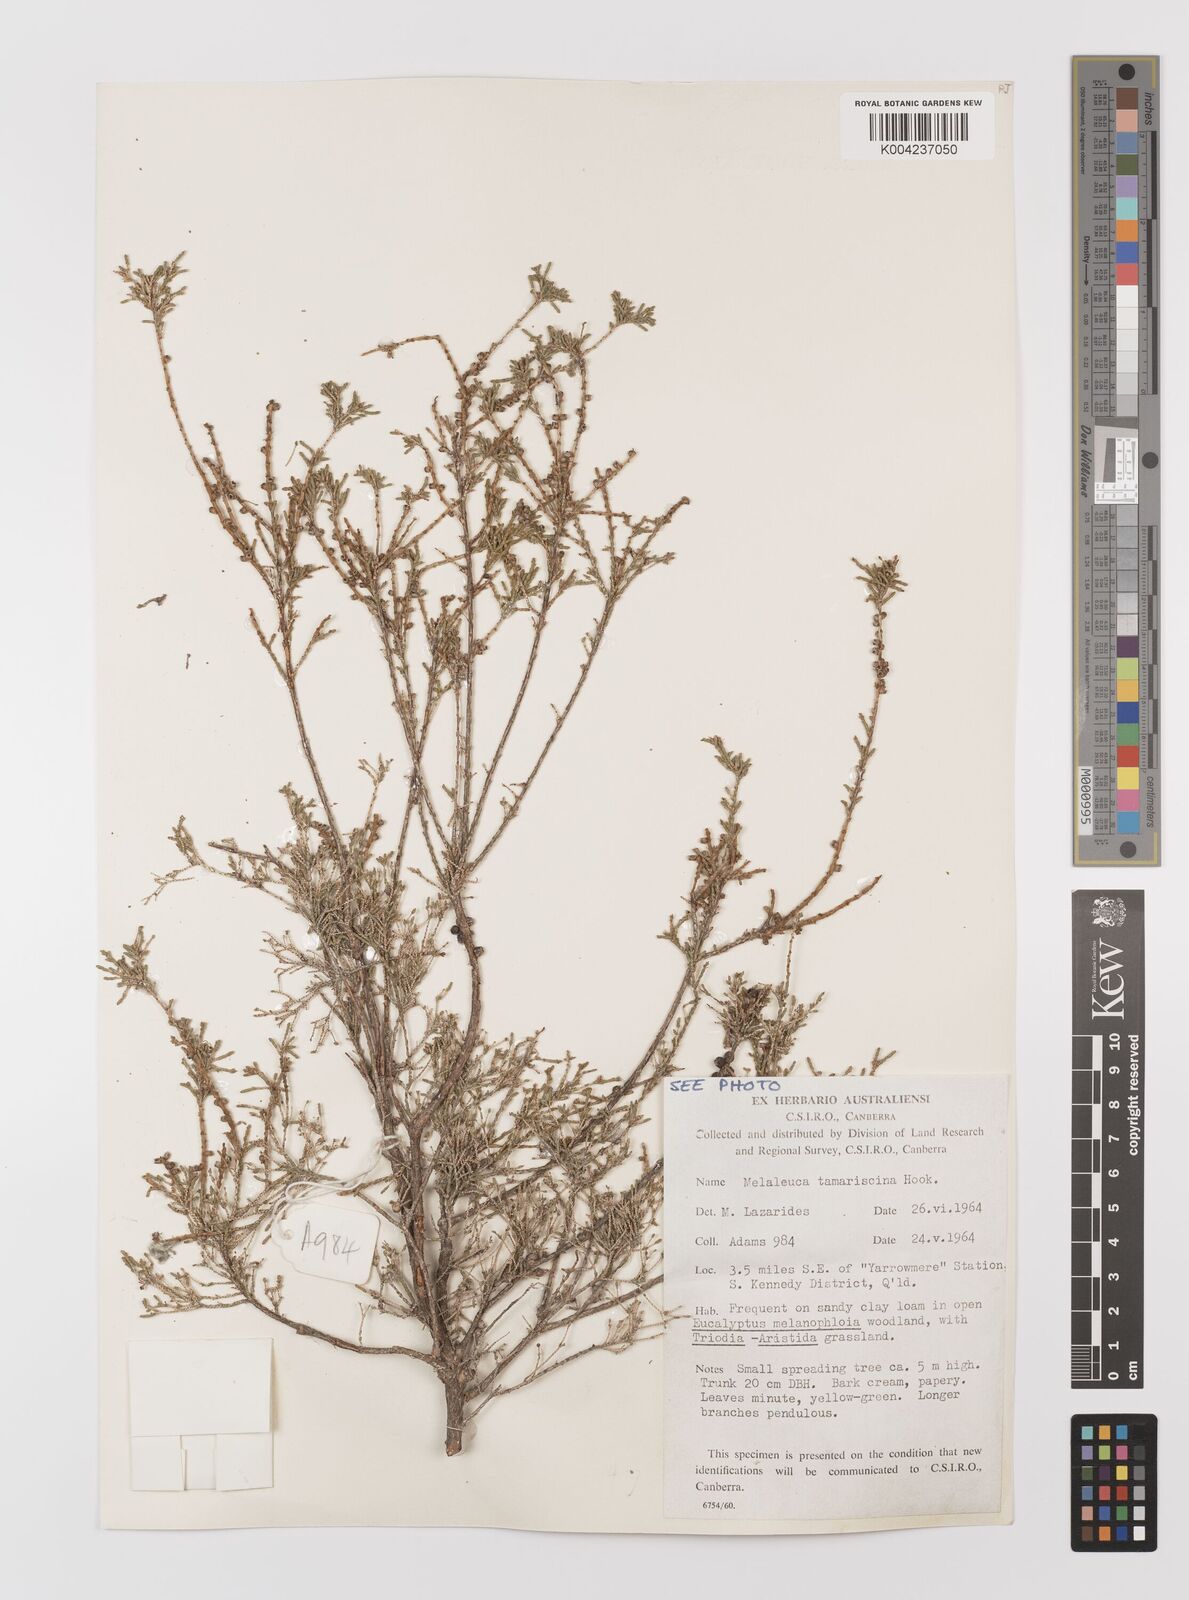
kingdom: Plantae
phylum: Tracheophyta
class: Magnoliopsida
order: Myrtales
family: Myrtaceae
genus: Melaleuca
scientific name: Melaleuca tamariscina
